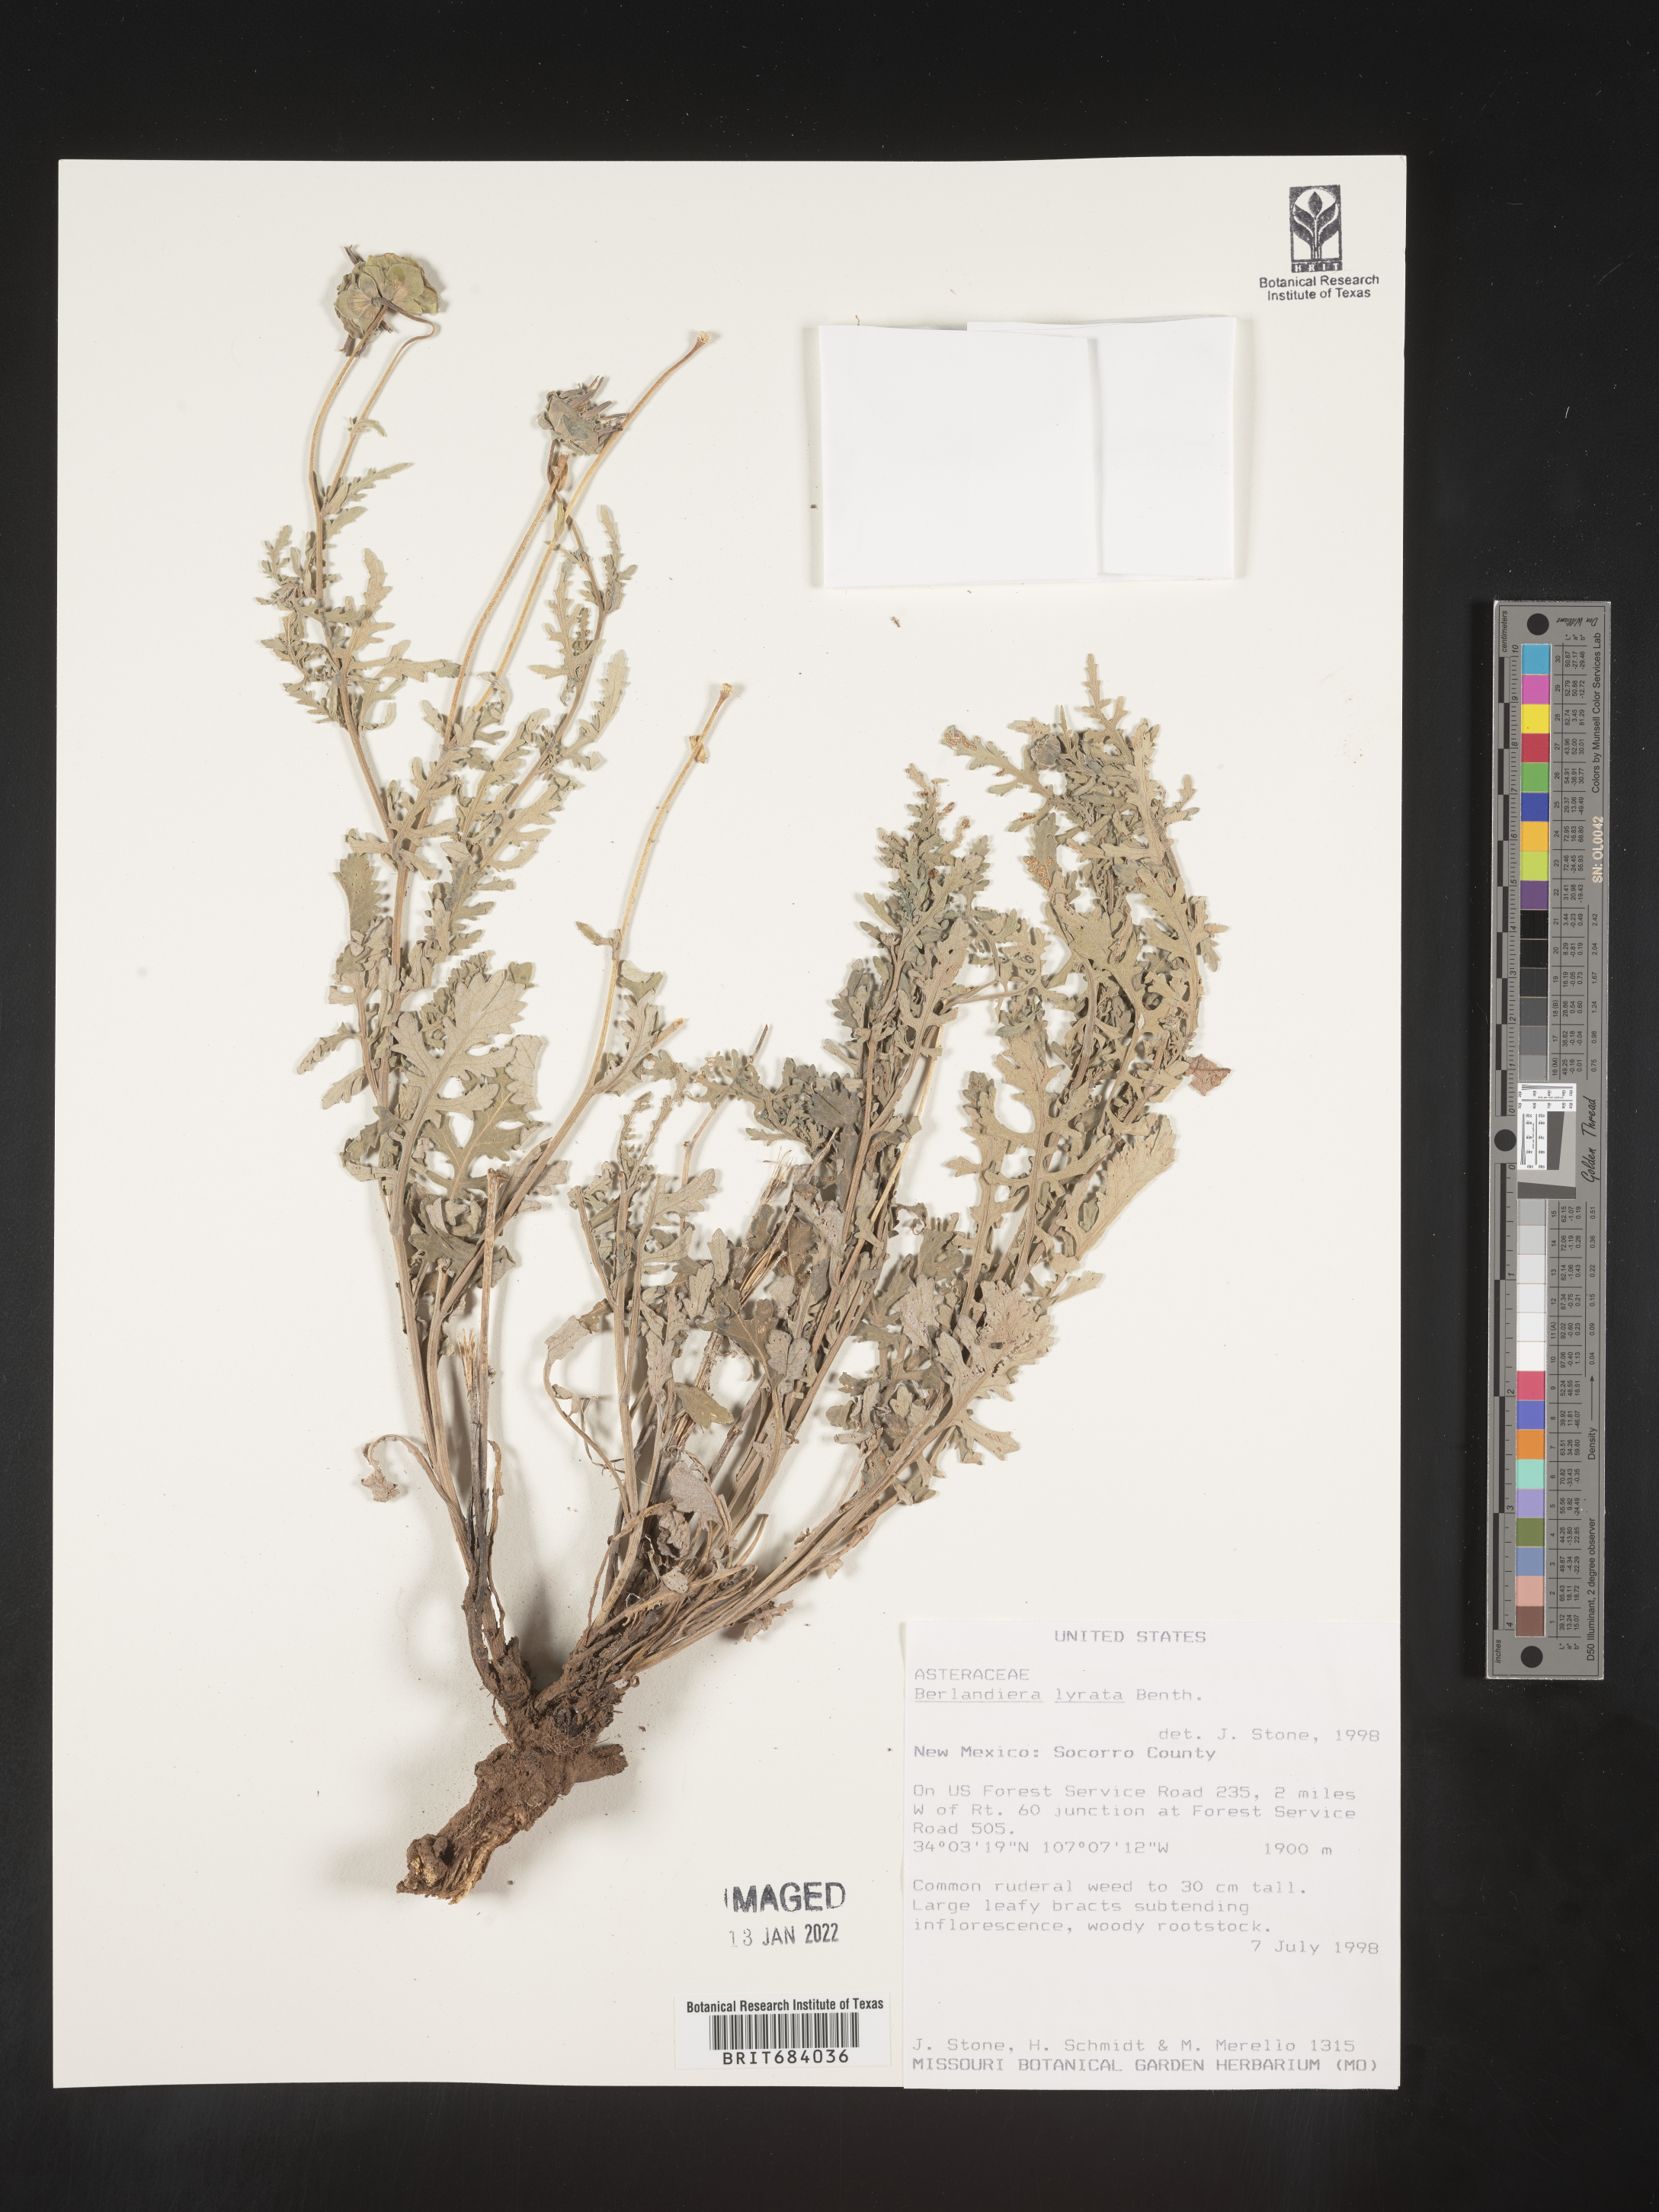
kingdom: Plantae
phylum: Tracheophyta
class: Magnoliopsida
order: Asterales
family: Asteraceae
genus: Berlandiera
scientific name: Berlandiera lyrata
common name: Chocolate-flower
